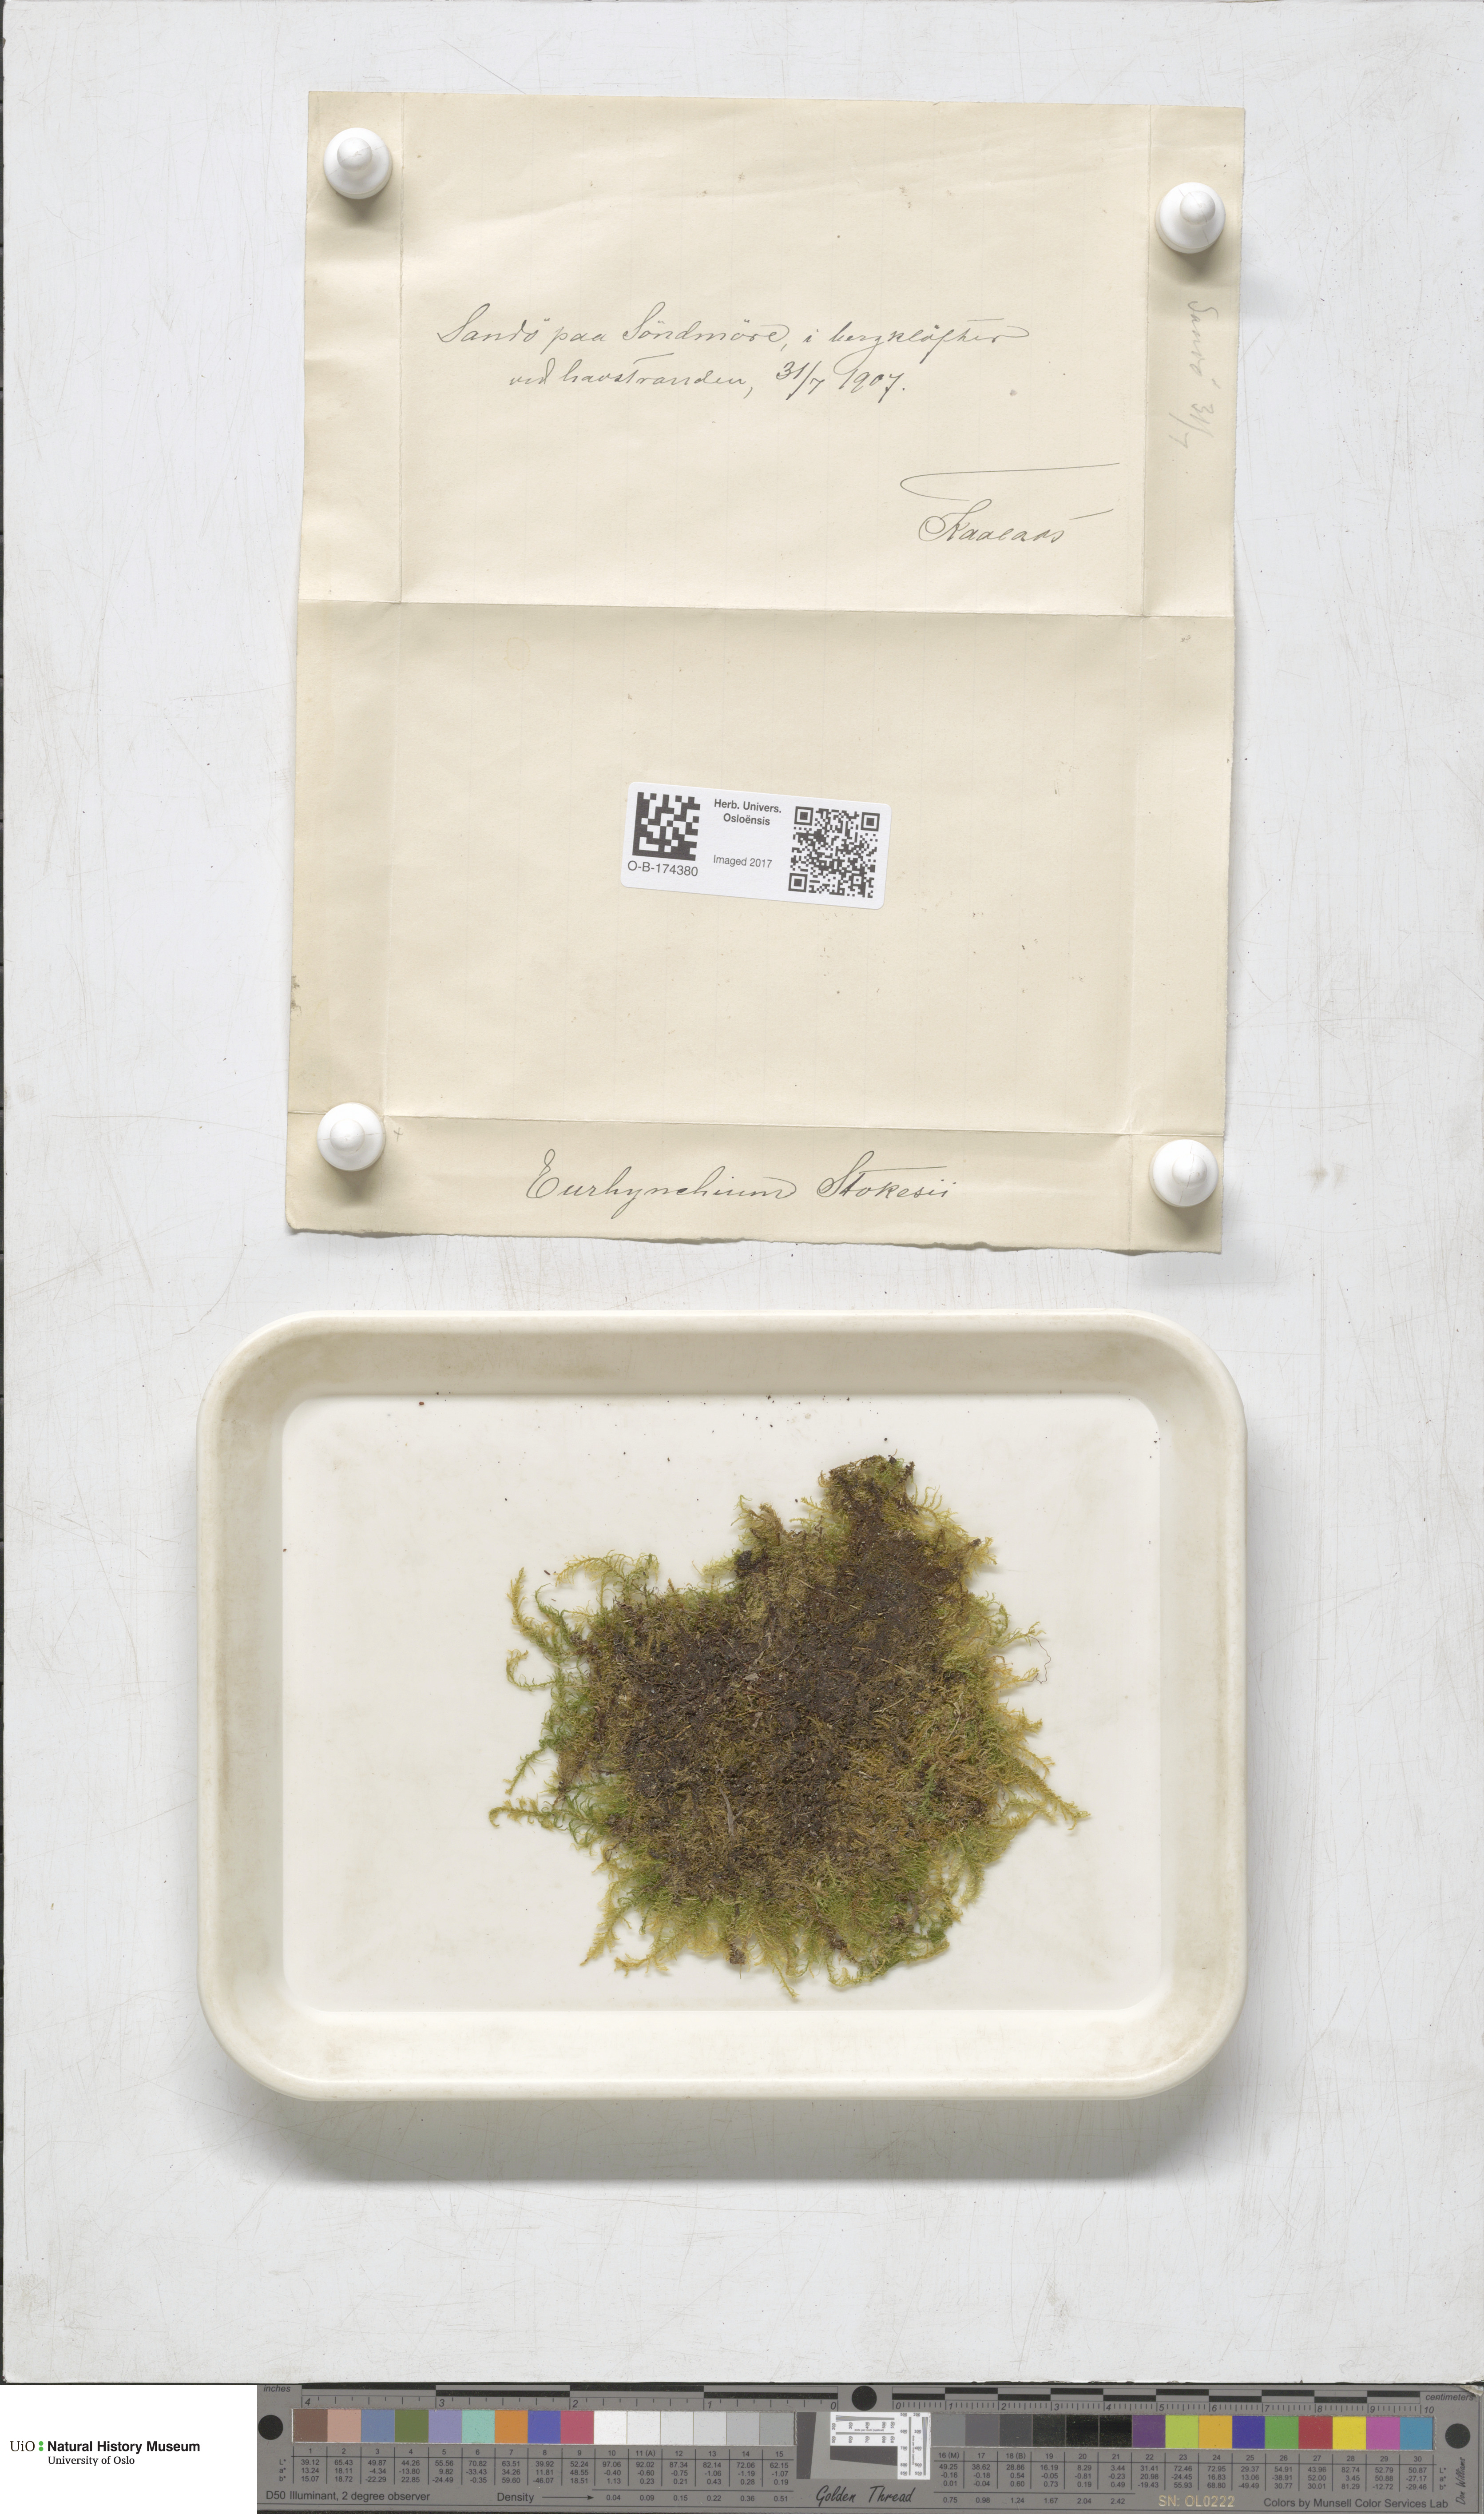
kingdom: Plantae
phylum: Bryophyta
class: Bryopsida
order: Hypnales
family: Brachytheciaceae
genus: Kindbergia
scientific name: Kindbergia praelonga
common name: Slender beaked moss
